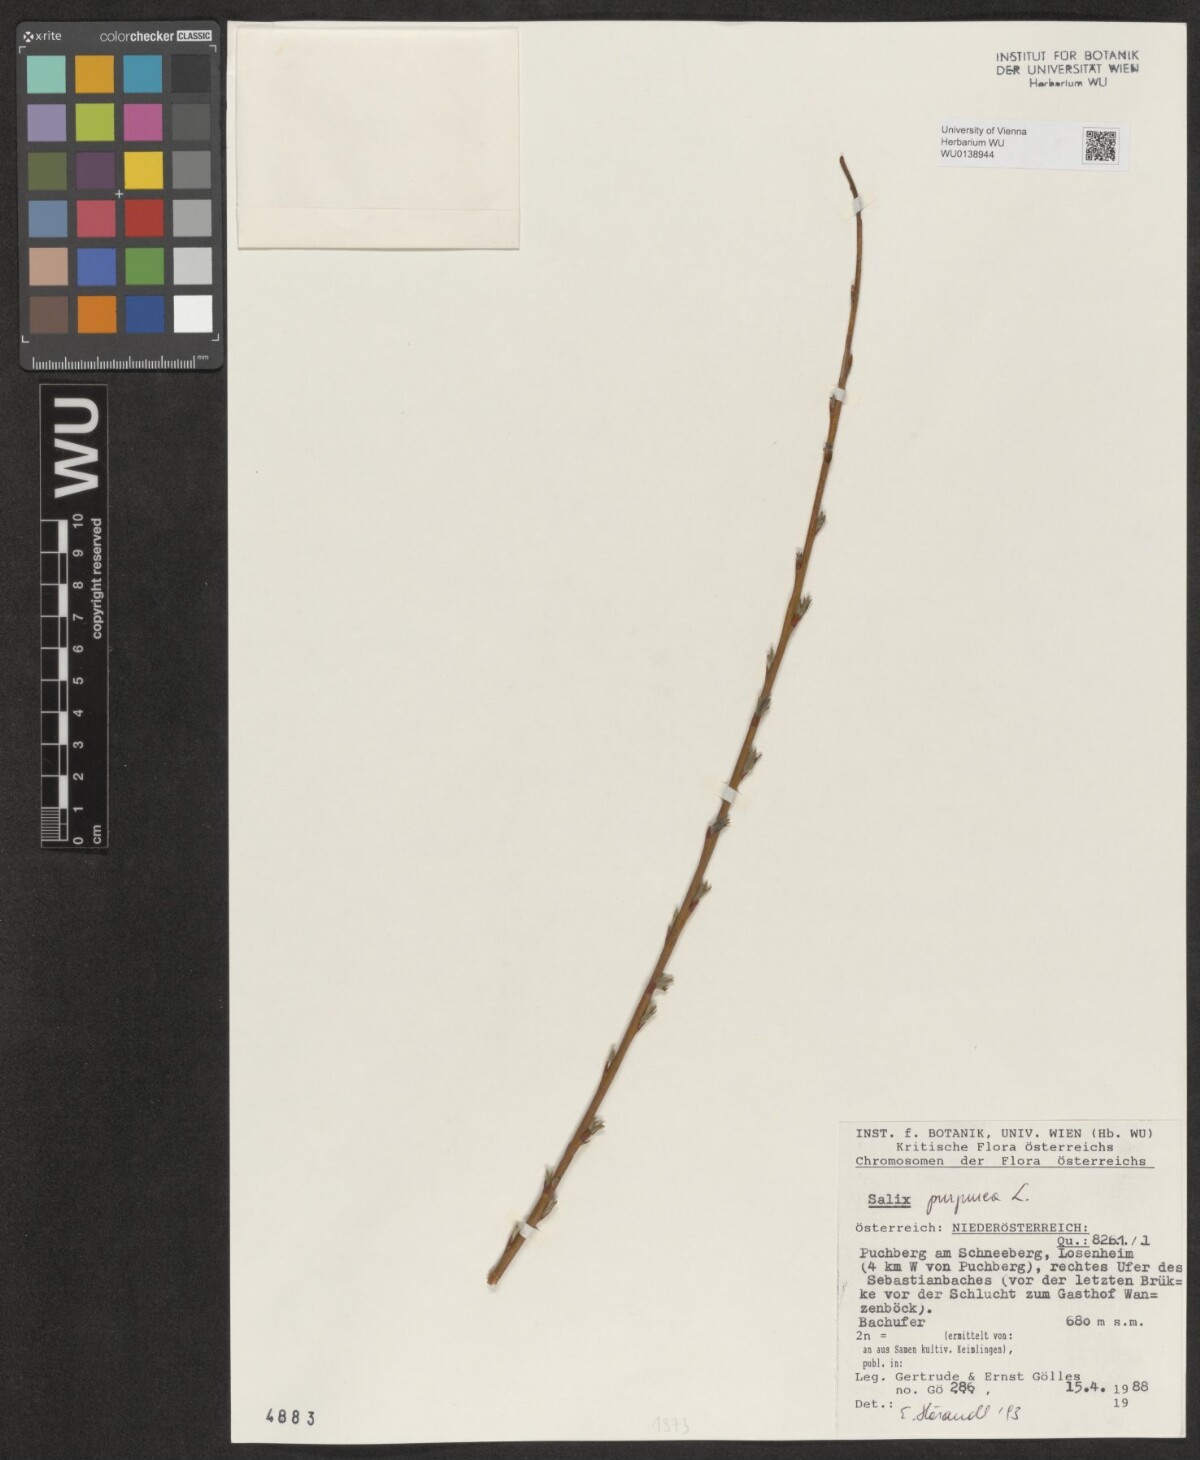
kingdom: Plantae
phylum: Tracheophyta
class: Magnoliopsida
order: Malpighiales
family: Salicaceae
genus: Salix
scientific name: Salix purpurea
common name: Purple willow
